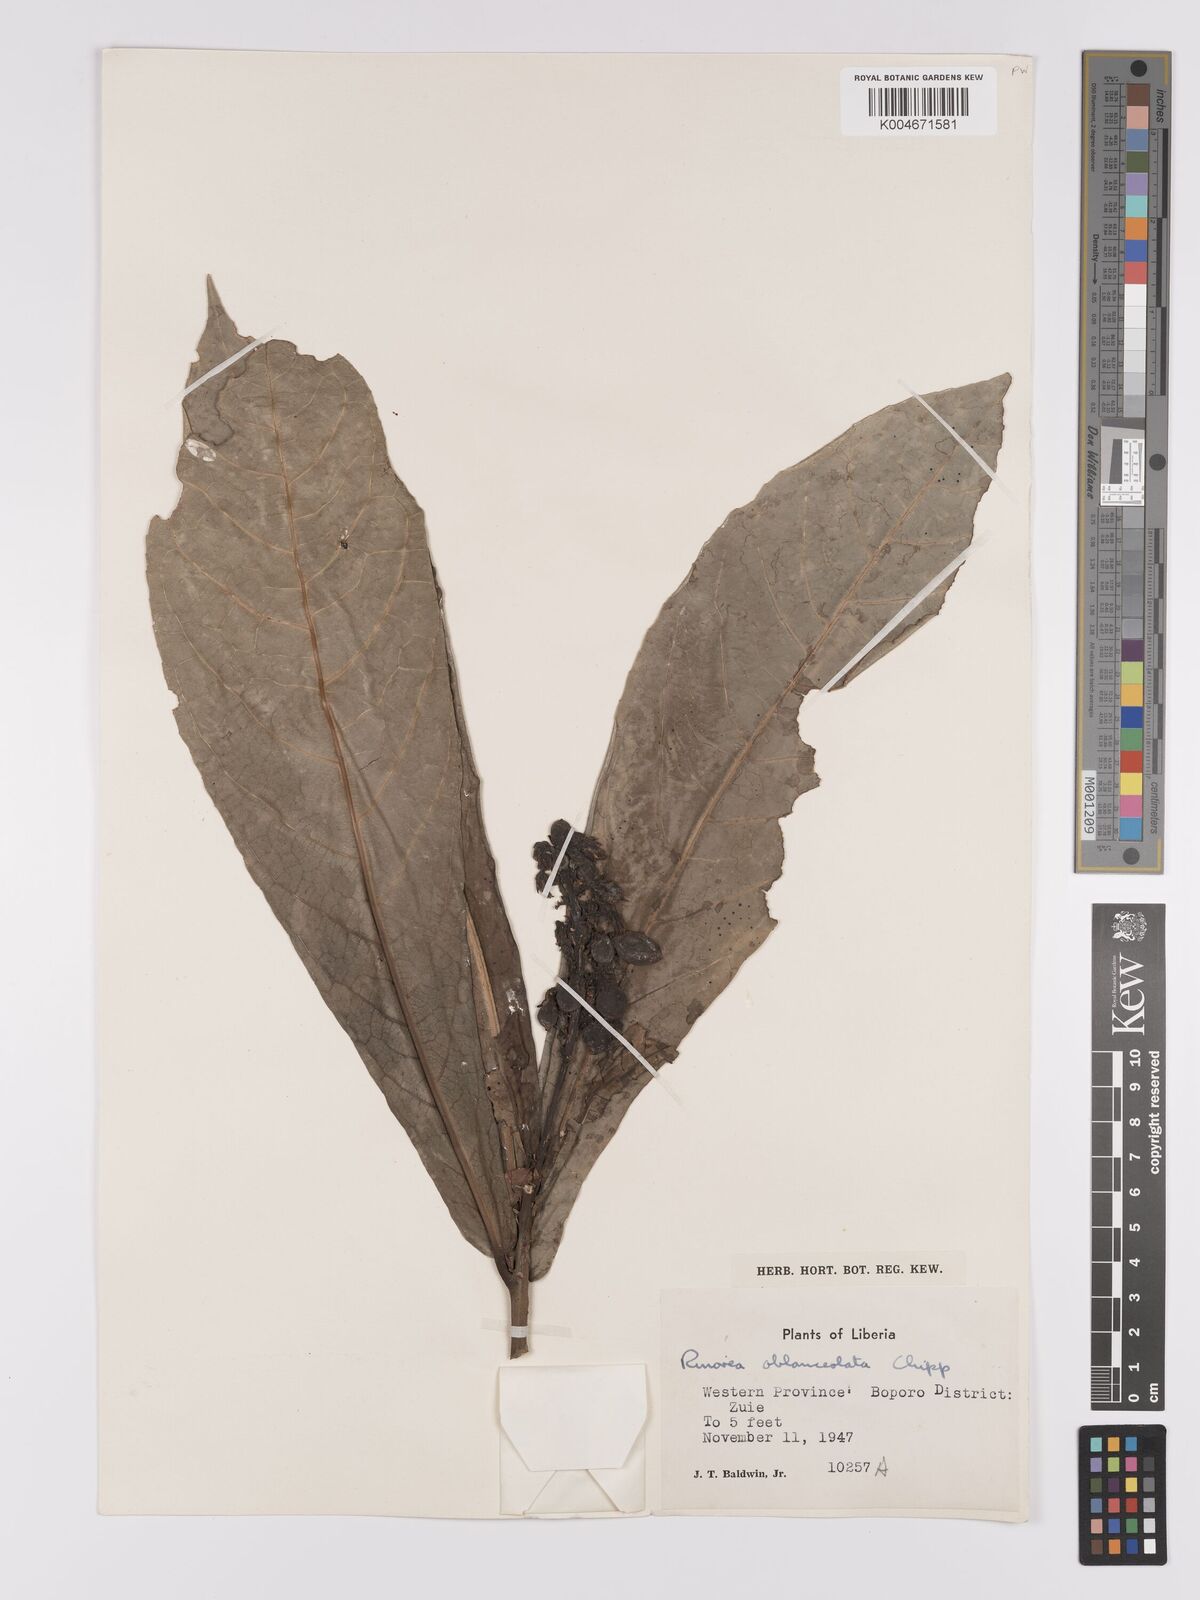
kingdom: Plantae
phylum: Tracheophyta
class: Magnoliopsida
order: Malpighiales
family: Violaceae
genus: Rinorea
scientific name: Rinorea oblanceolata
